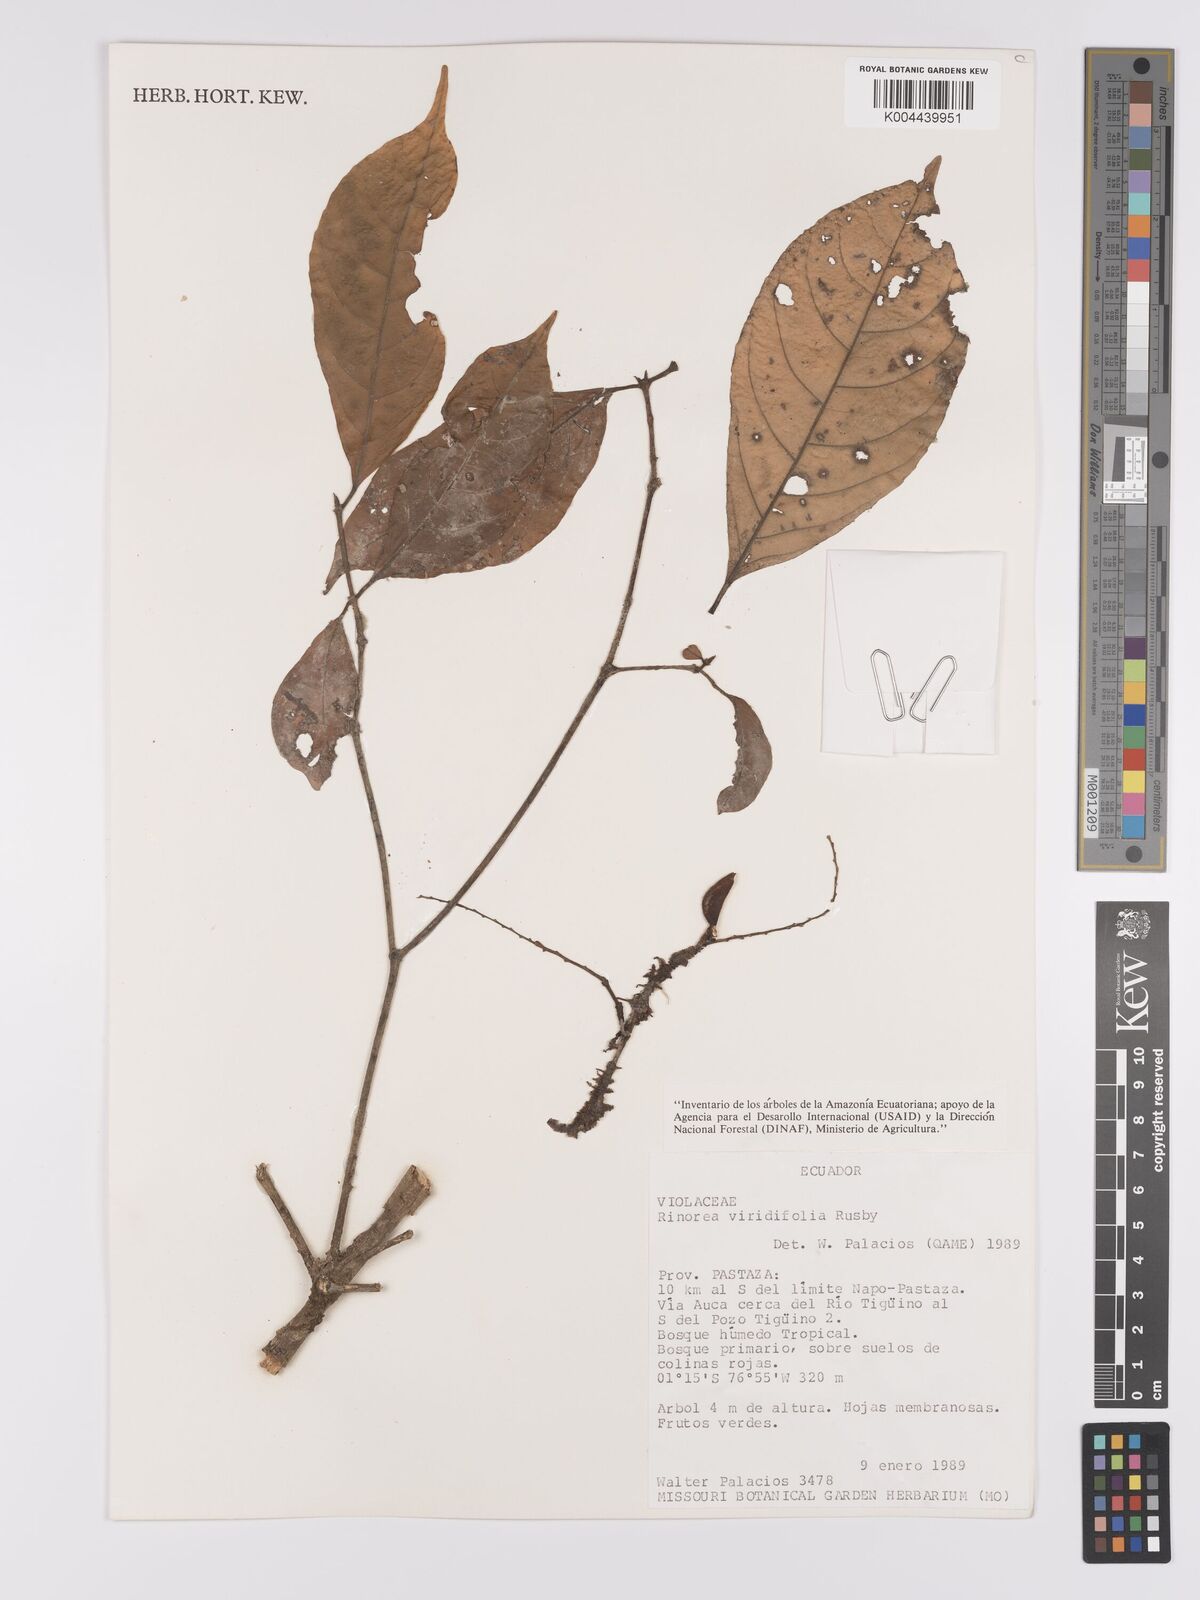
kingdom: Plantae
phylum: Tracheophyta
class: Magnoliopsida
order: Malpighiales
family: Violaceae
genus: Rinorea
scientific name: Rinorea viridifolia
